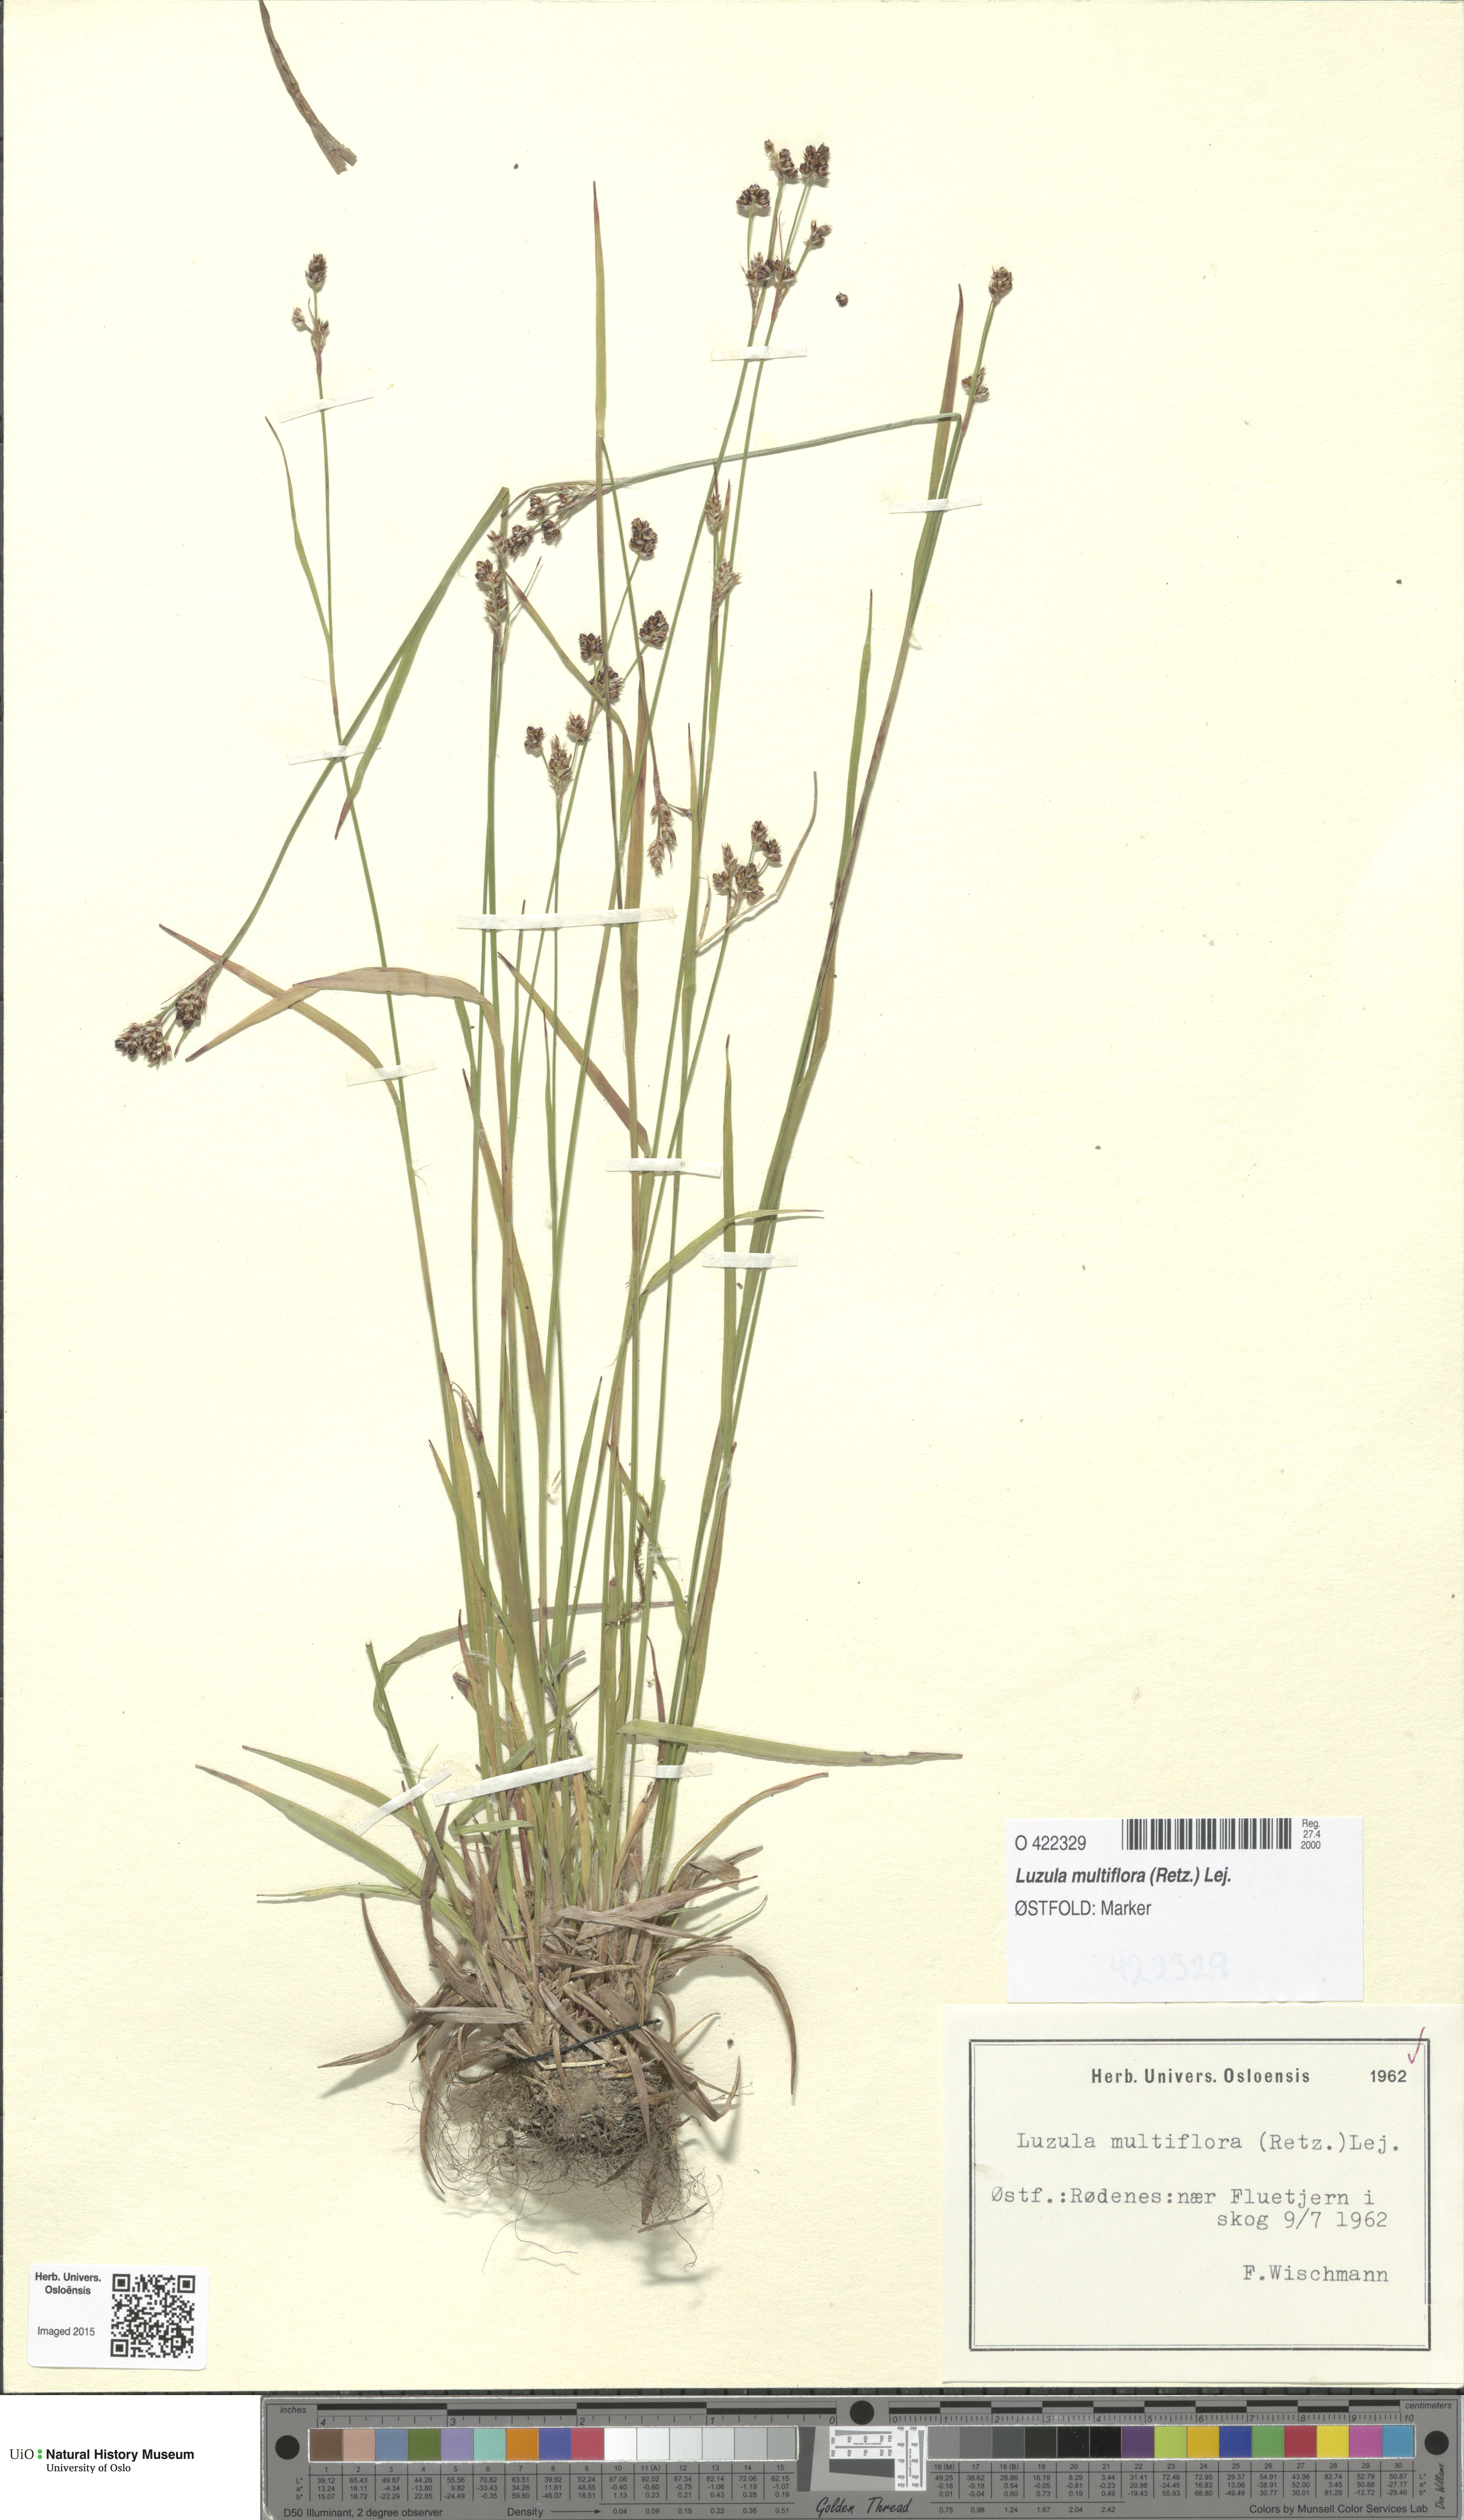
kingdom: Plantae
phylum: Tracheophyta
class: Liliopsida
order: Poales
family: Juncaceae
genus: Luzula
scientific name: Luzula multiflora
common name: Heath wood-rush
